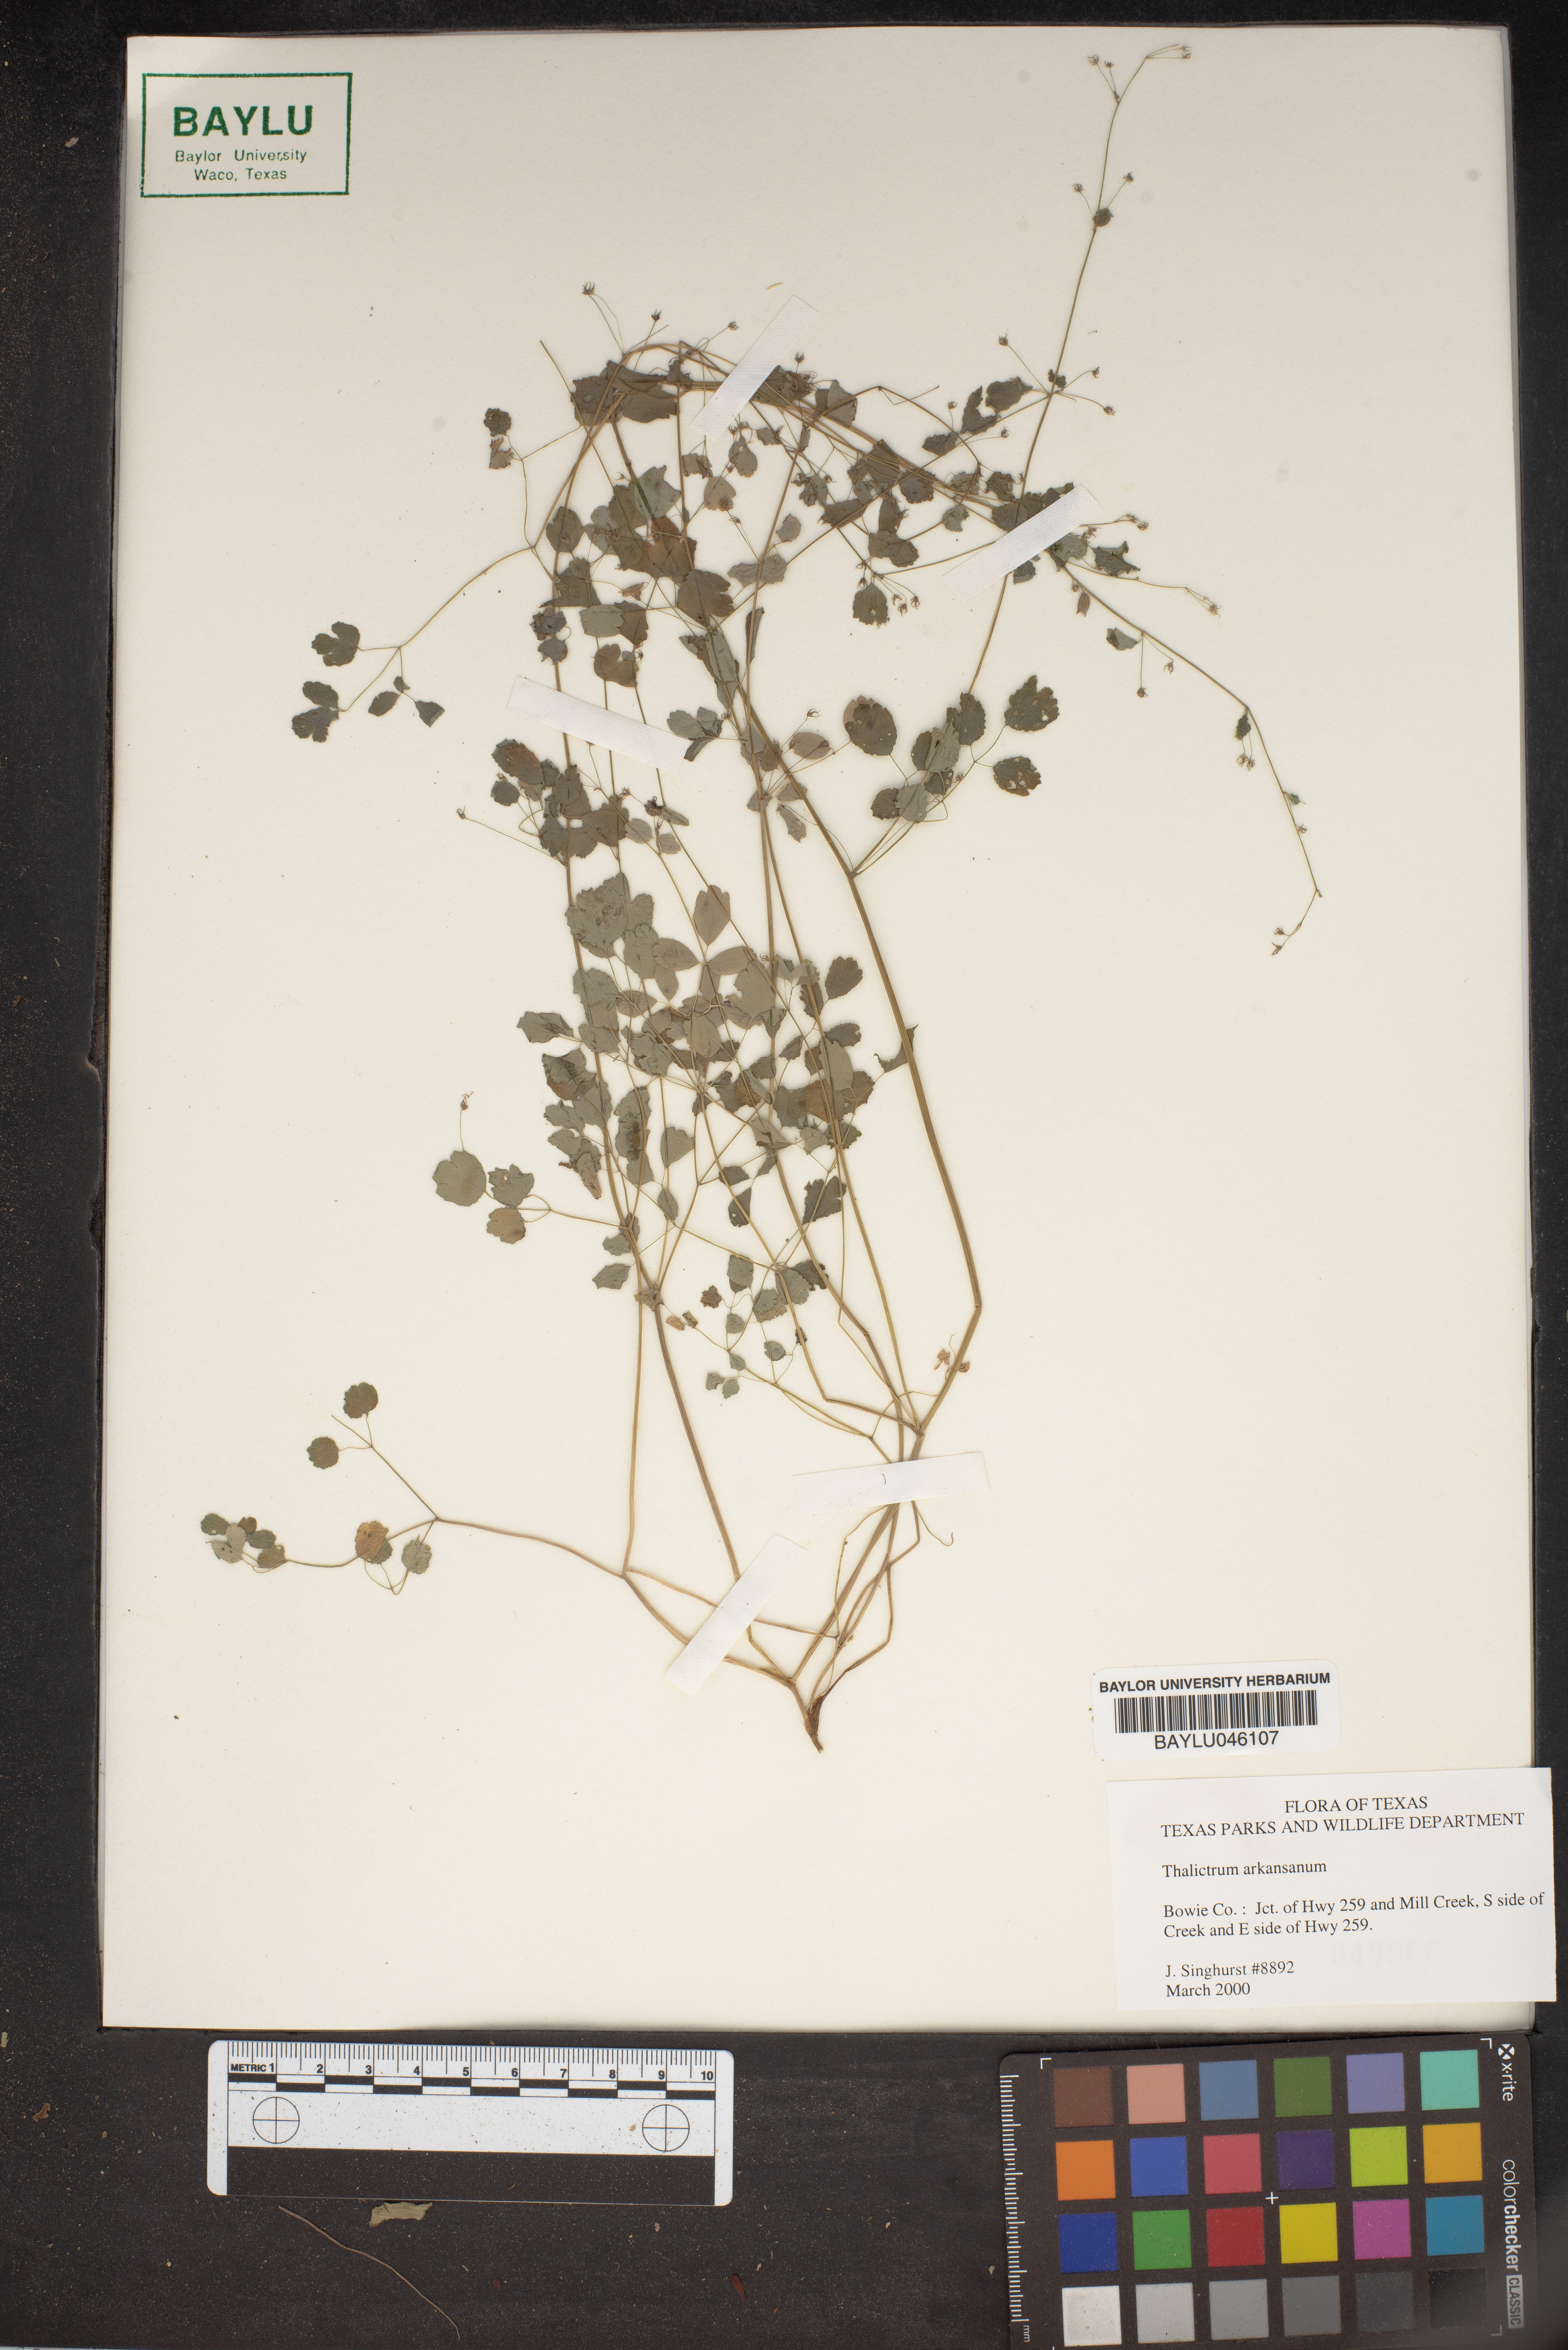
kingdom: Plantae
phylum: Tracheophyta
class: Magnoliopsida
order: Ranunculales
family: Ranunculaceae
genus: Thalictrum
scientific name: Thalictrum arkansanum
